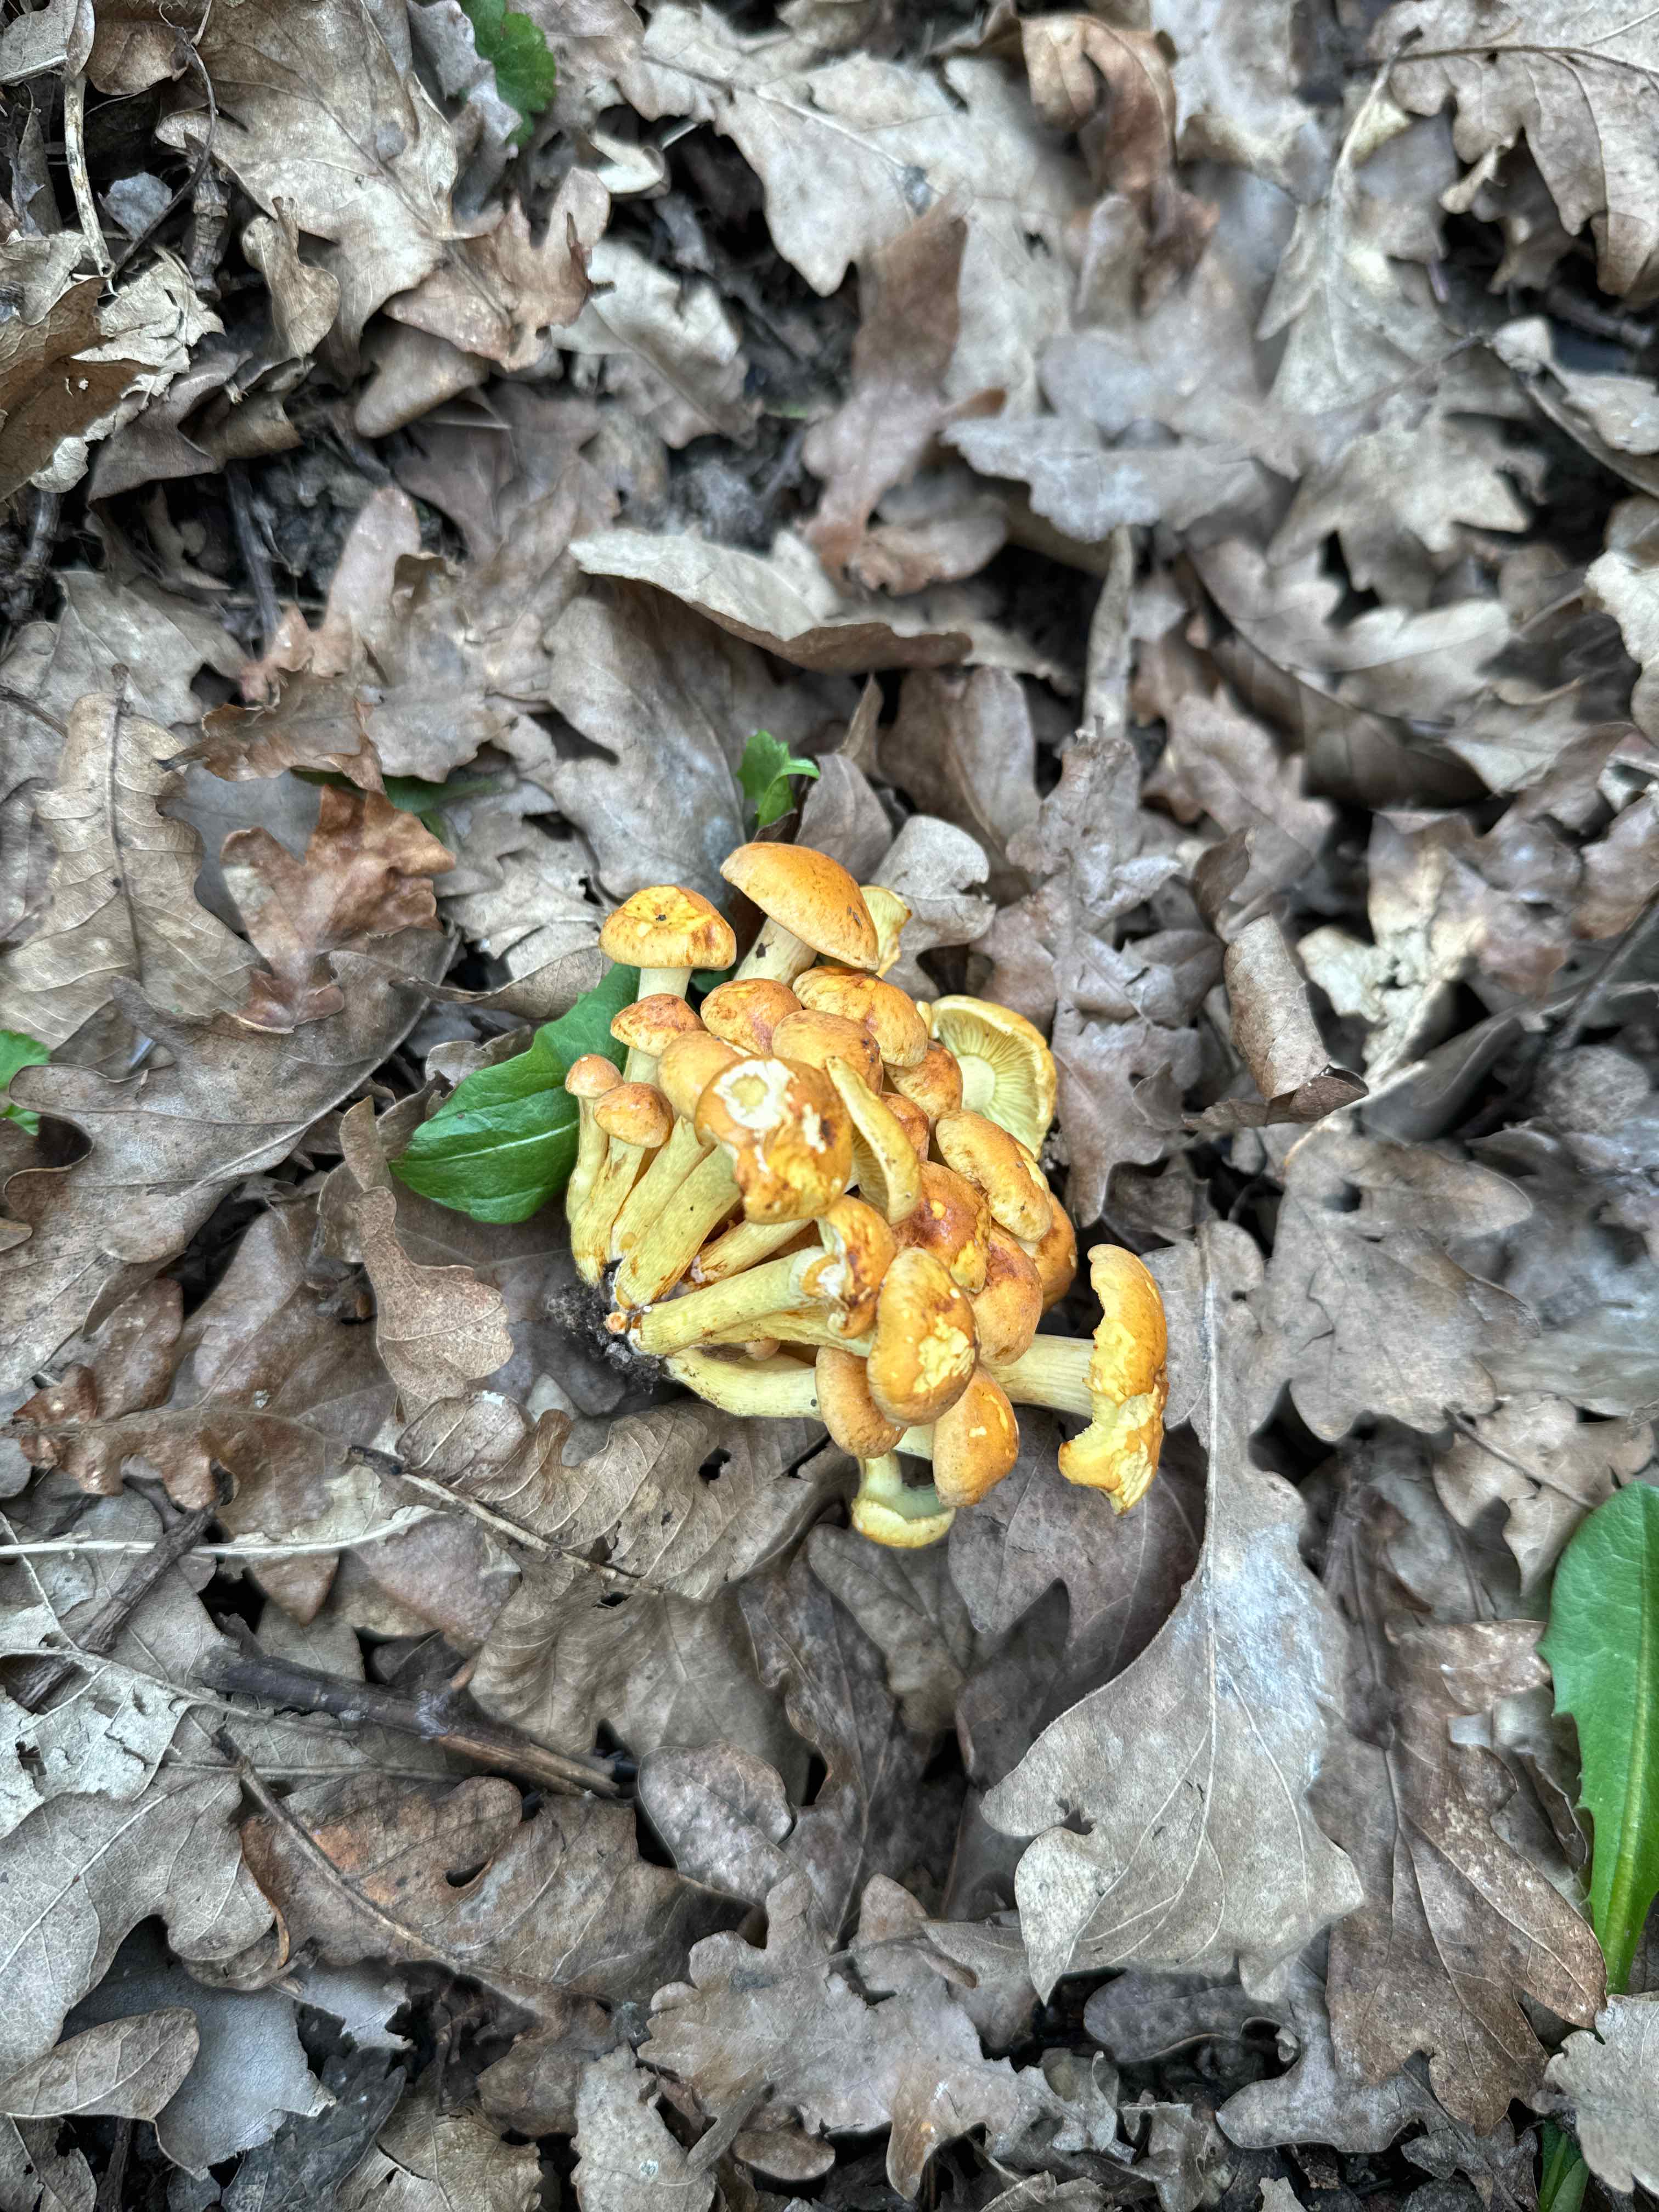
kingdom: Fungi
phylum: Basidiomycota
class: Agaricomycetes
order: Agaricales
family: Strophariaceae
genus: Hypholoma
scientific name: Hypholoma fasciculare
